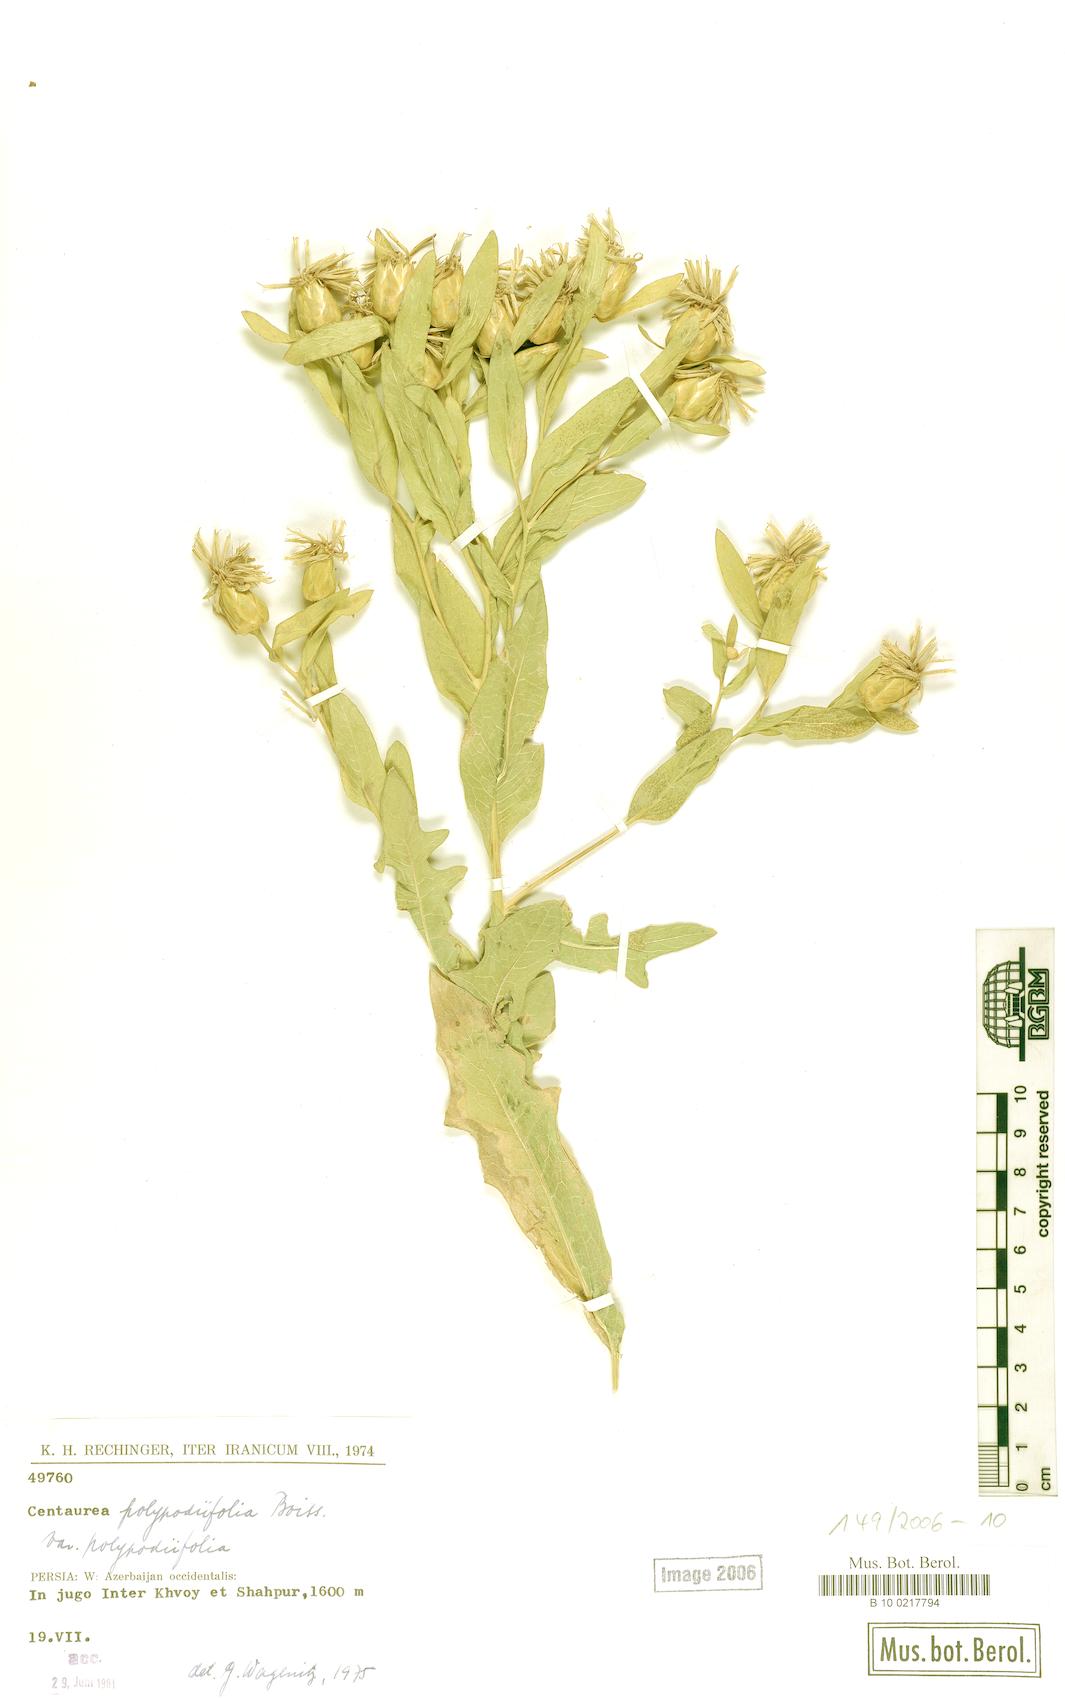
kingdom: Plantae
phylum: Tracheophyta
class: Magnoliopsida
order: Asterales
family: Asteraceae
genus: Centaurea
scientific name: Centaurea polypodiifolia
